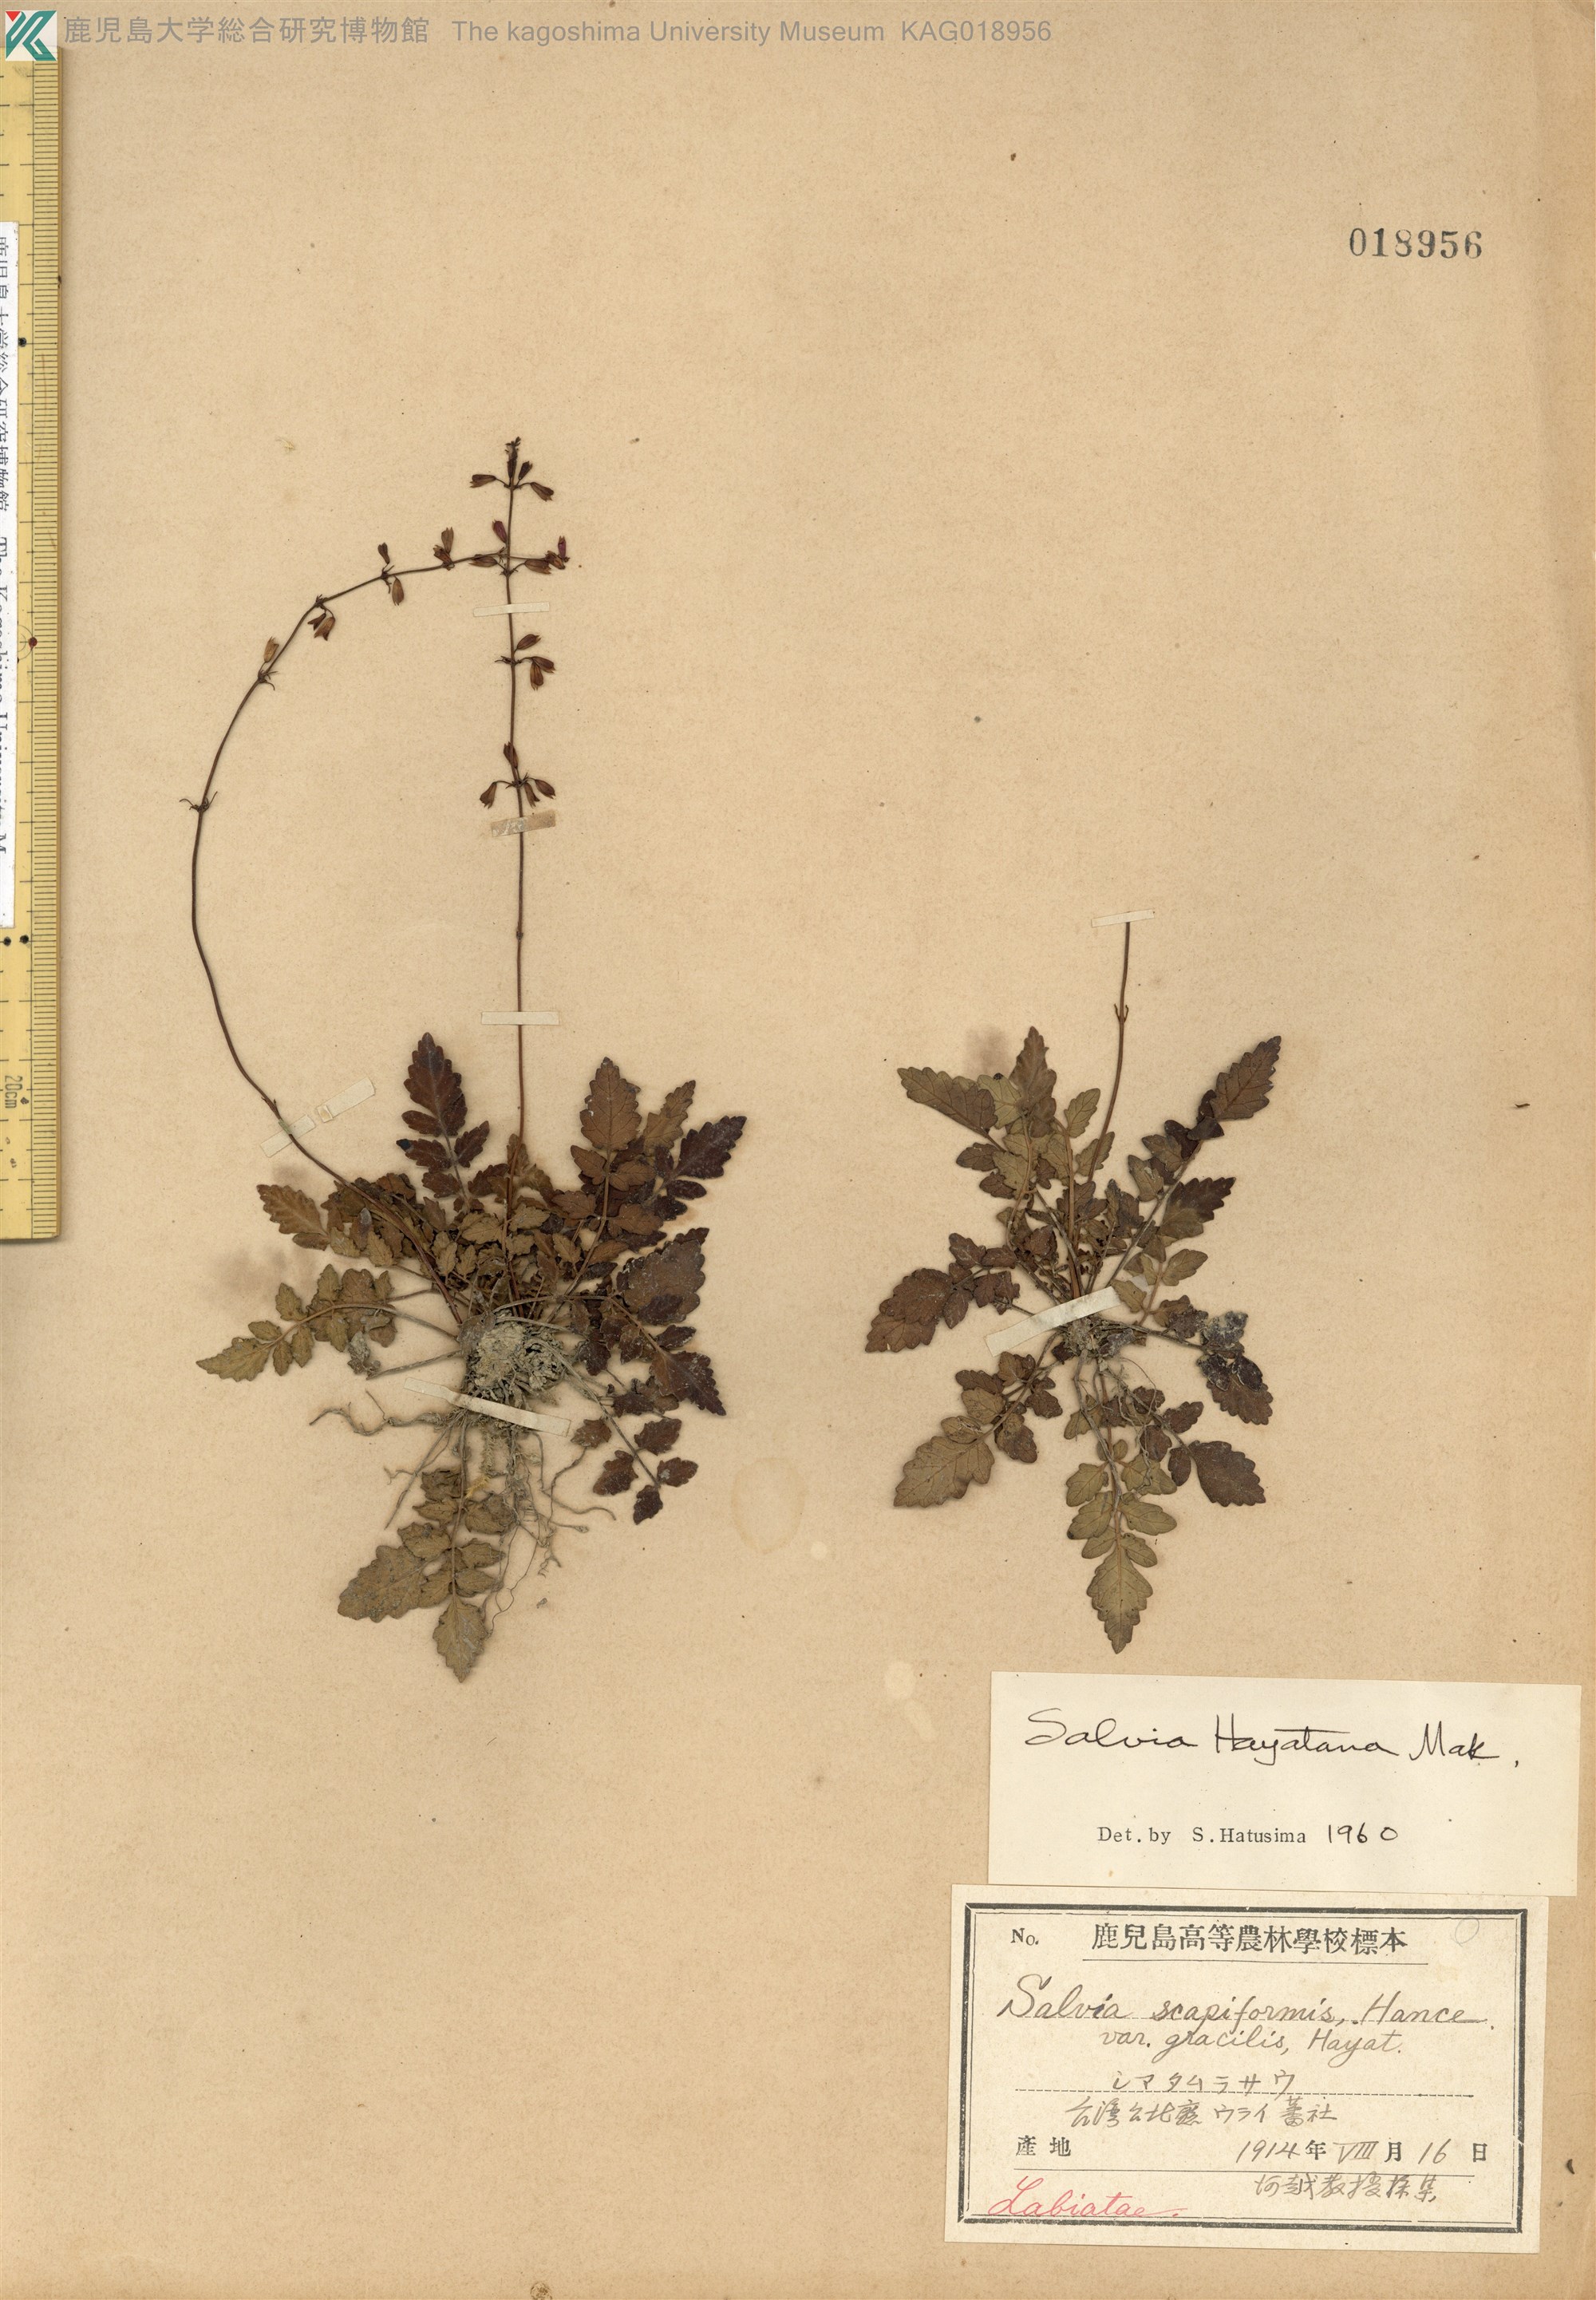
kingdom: Plantae
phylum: Tracheophyta
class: Magnoliopsida
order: Lamiales
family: Lamiaceae
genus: Salvia
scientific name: Salvia hayatae
